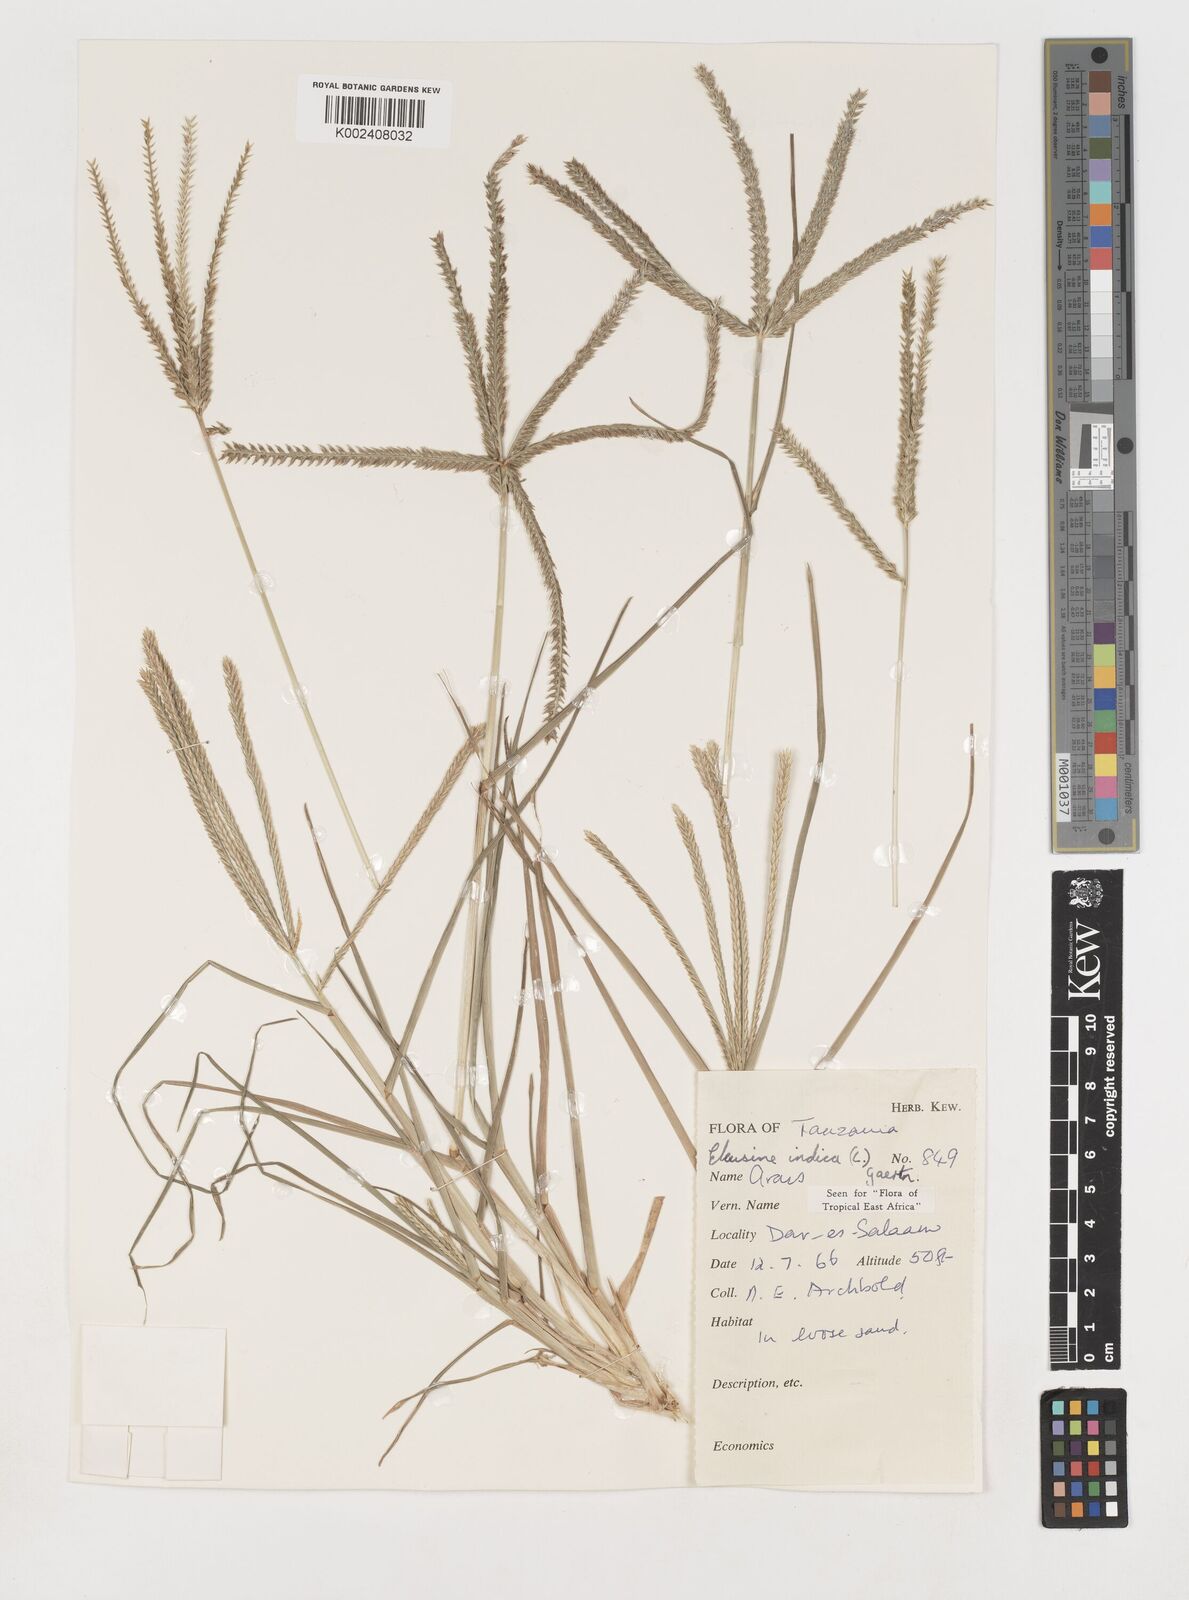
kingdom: Plantae
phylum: Tracheophyta
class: Liliopsida
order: Poales
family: Poaceae
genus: Eleusine
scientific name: Eleusine indica
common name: Yard-grass
